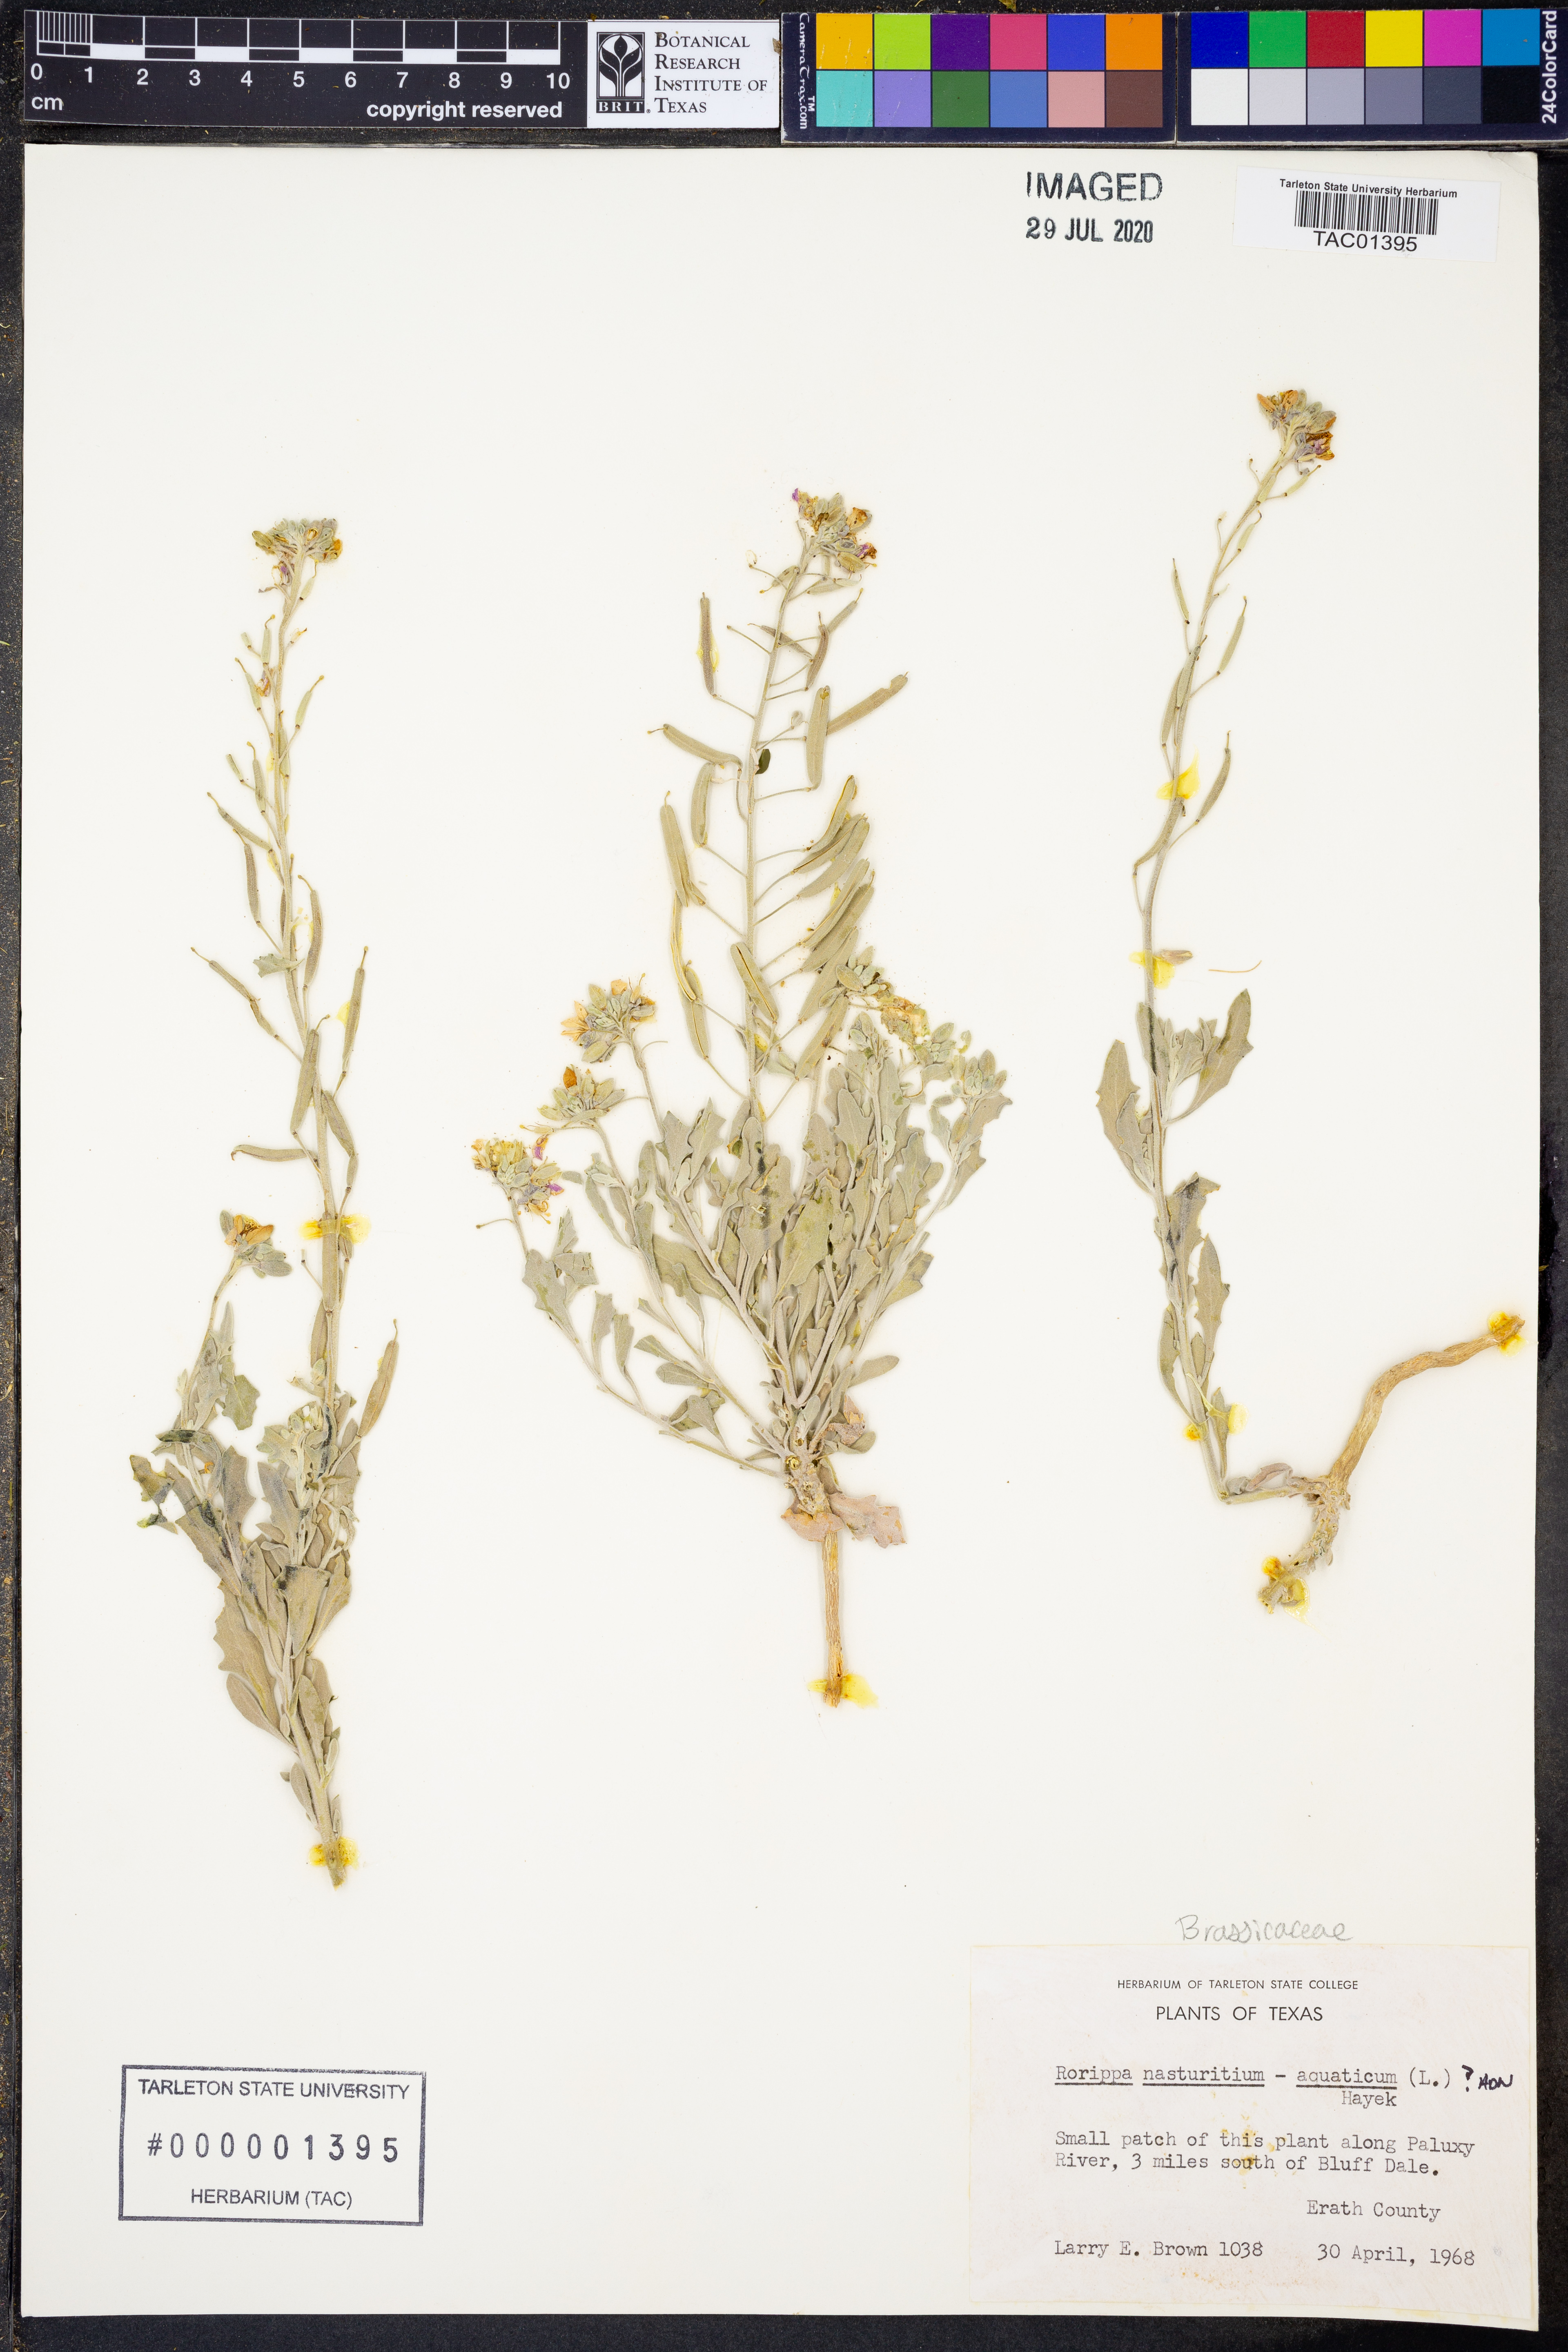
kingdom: Plantae
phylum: Tracheophyta
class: Magnoliopsida
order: Brassicales
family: Brassicaceae
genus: Nasturtium
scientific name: Nasturtium officinale
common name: Watercress
